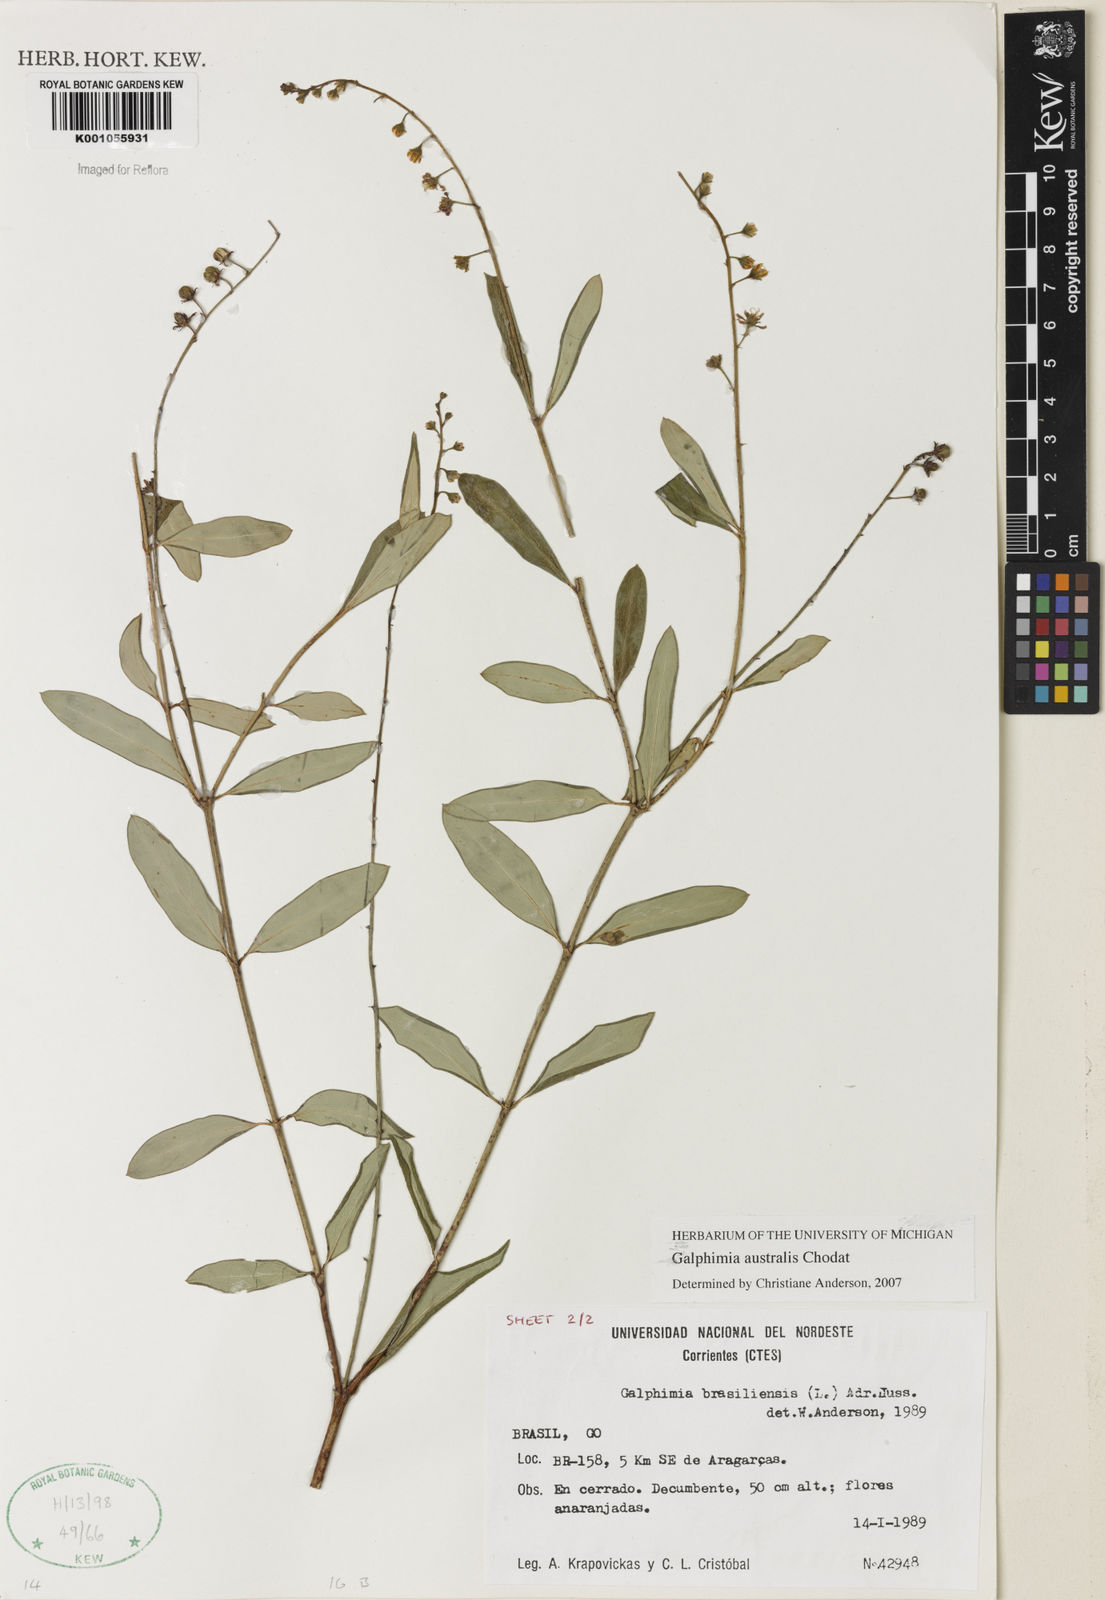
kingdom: Plantae
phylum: Tracheophyta
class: Magnoliopsida
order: Malpighiales
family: Malpighiaceae
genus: Galphimia
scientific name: Galphimia brasiliensis
